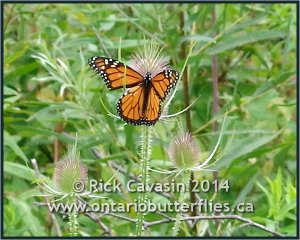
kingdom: Animalia
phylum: Arthropoda
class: Insecta
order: Lepidoptera
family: Nymphalidae
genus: Danaus
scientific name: Danaus plexippus
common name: Monarch
